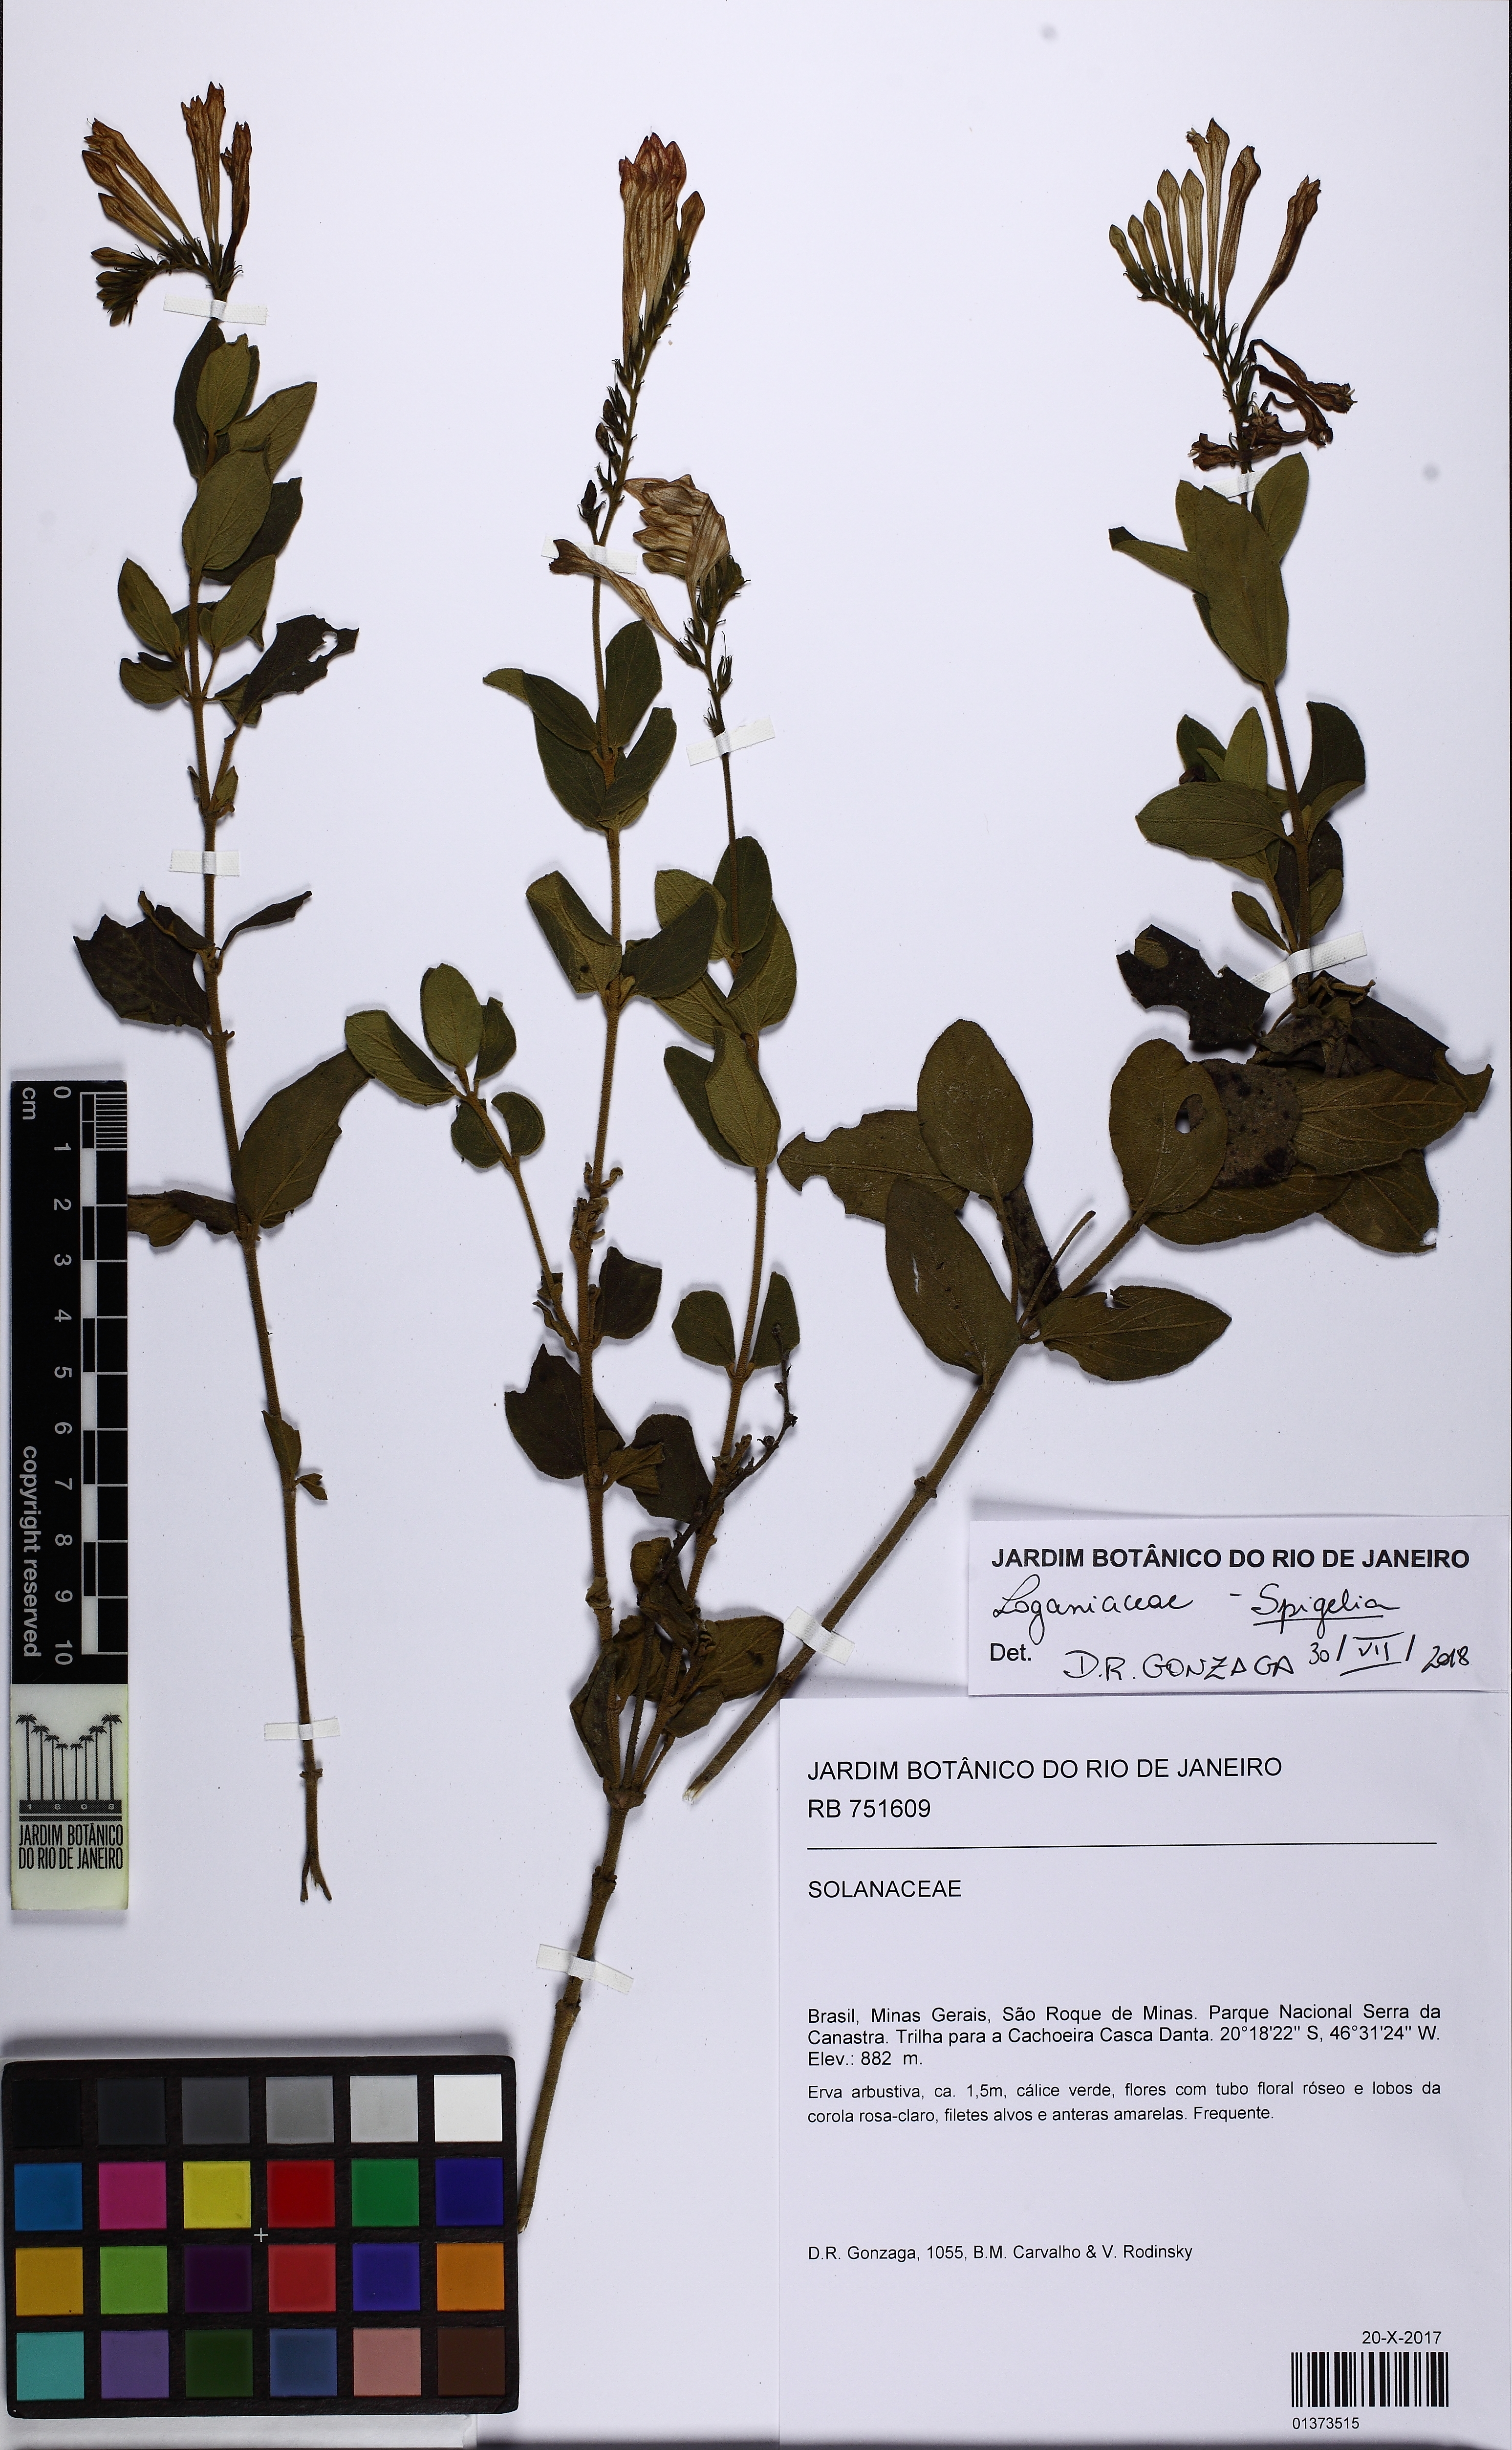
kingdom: Plantae
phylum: Tracheophyta
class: Magnoliopsida
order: Gentianales
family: Loganiaceae
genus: Spigelia
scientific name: Spigelia
